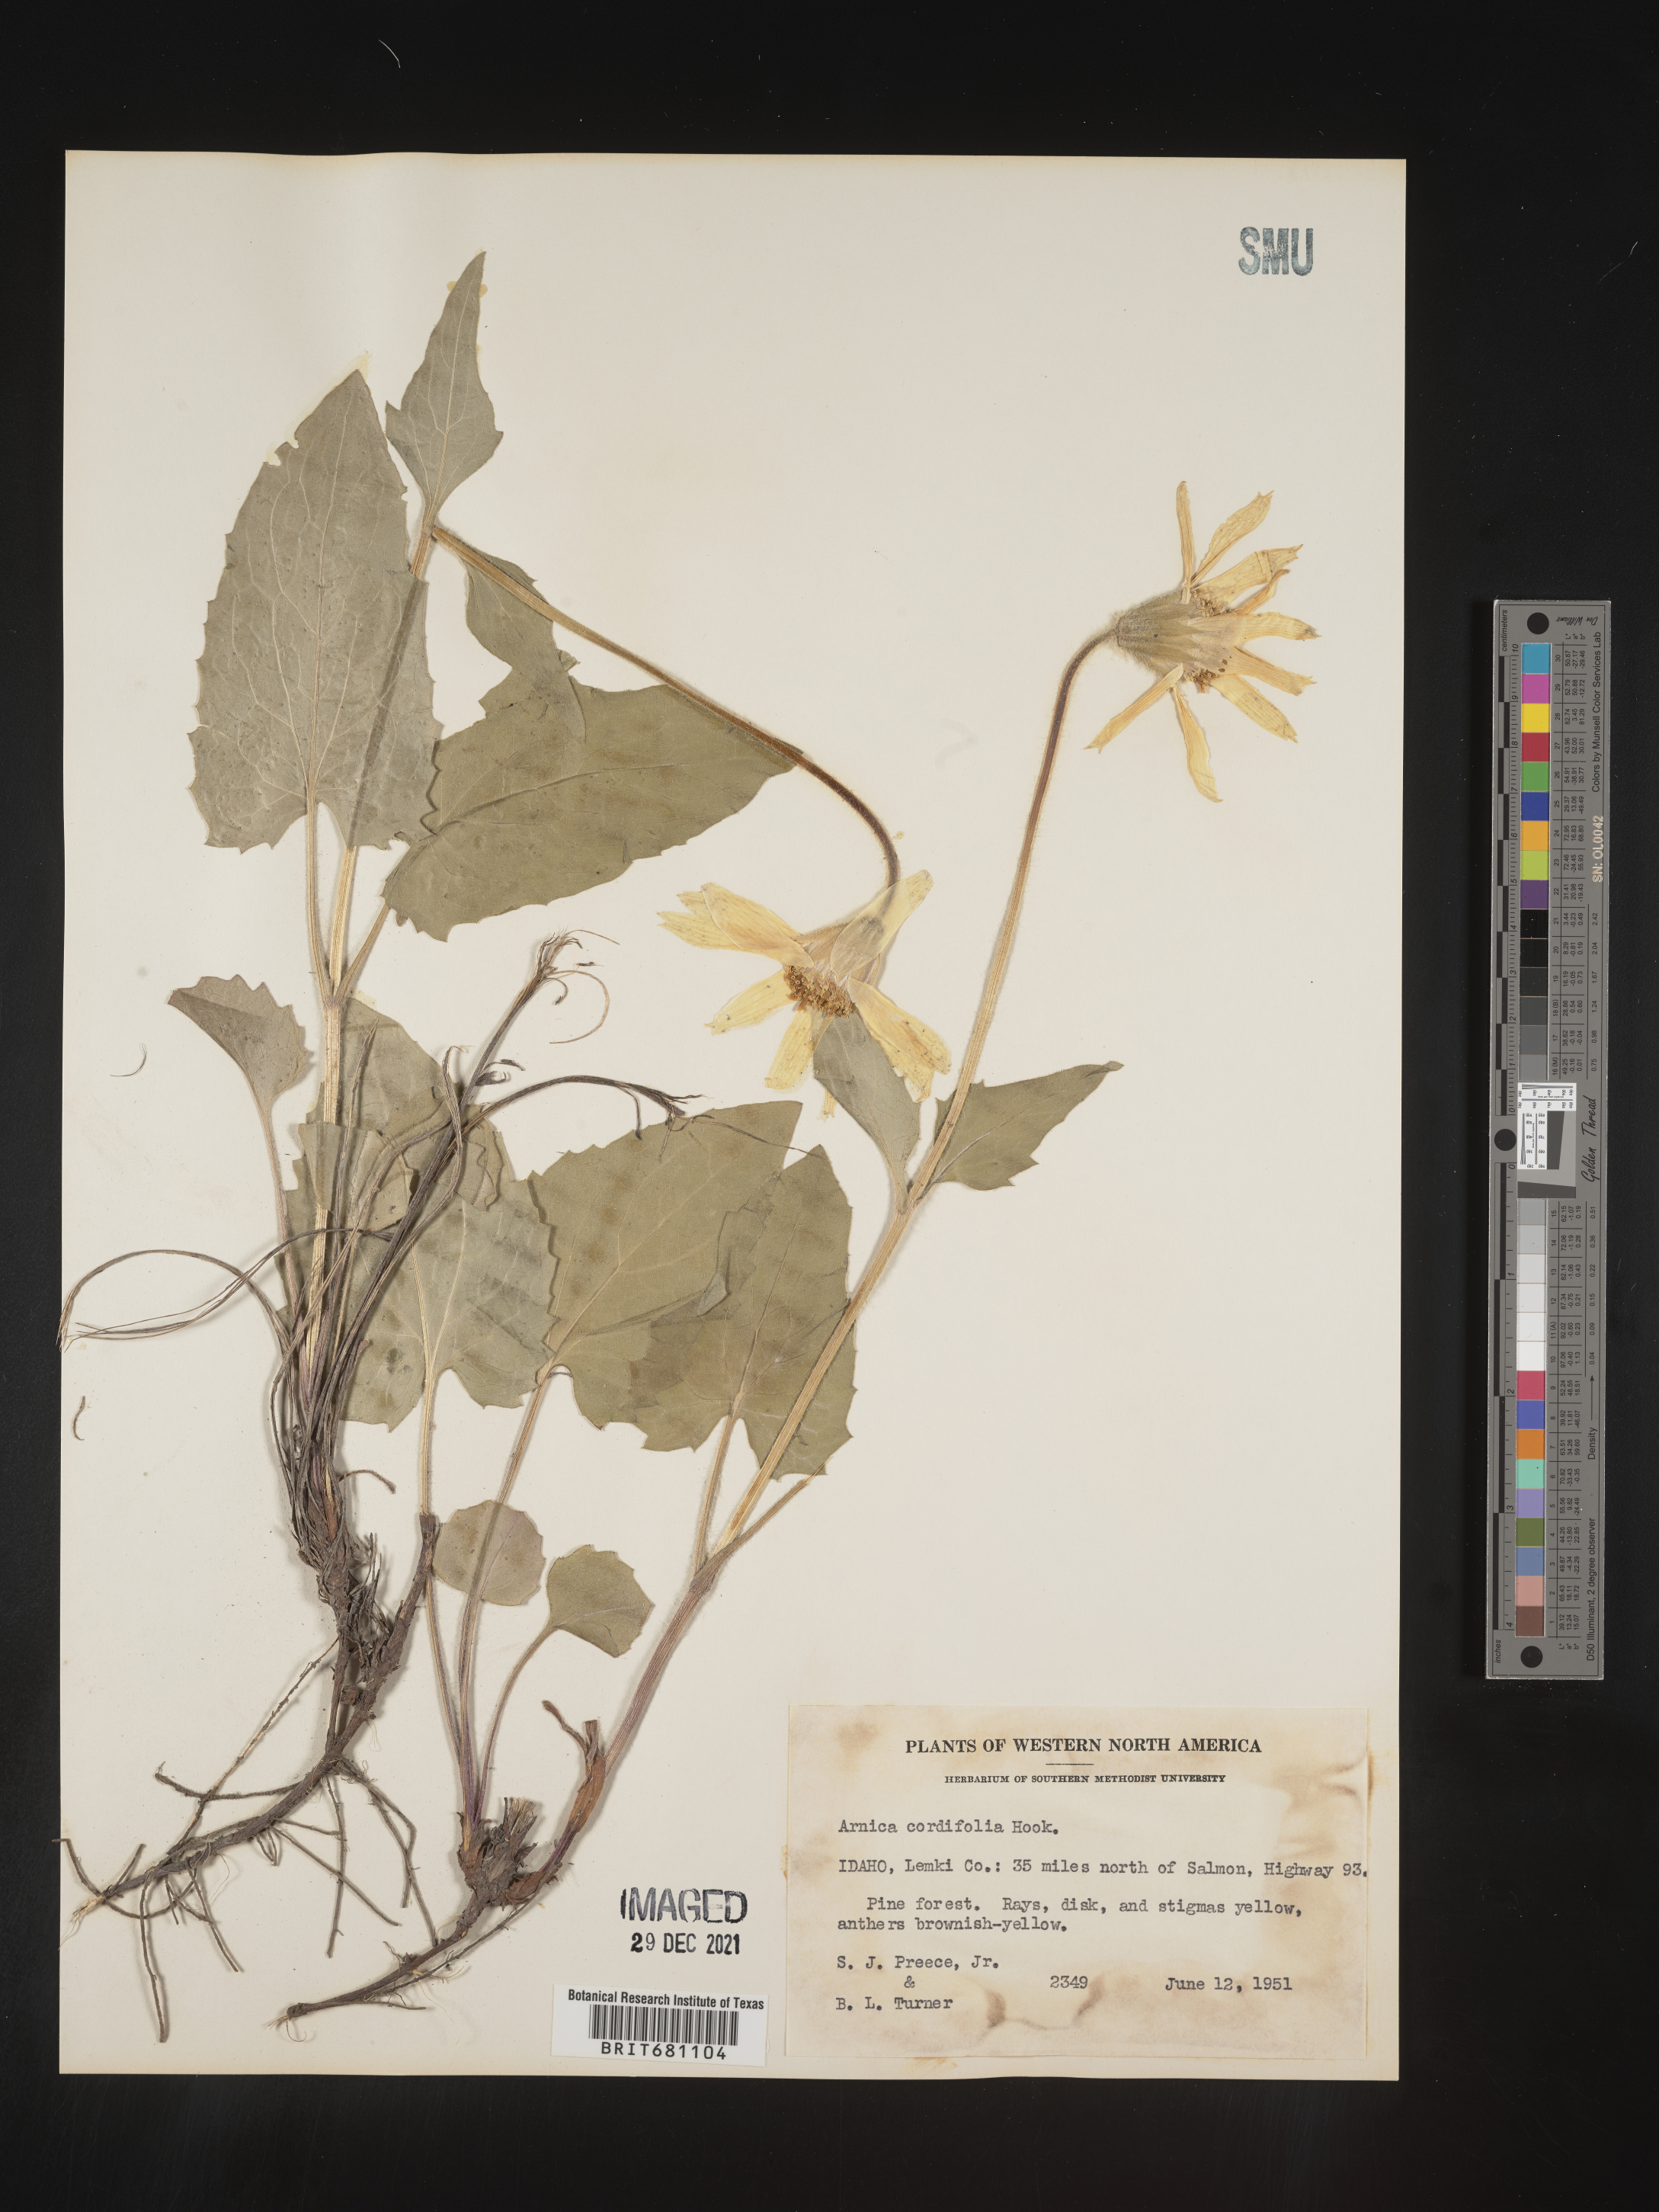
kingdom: Plantae
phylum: Tracheophyta
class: Magnoliopsida
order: Asterales
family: Asteraceae
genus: Arnica
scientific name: Arnica cordifolia
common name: Heart-leaf arnica
